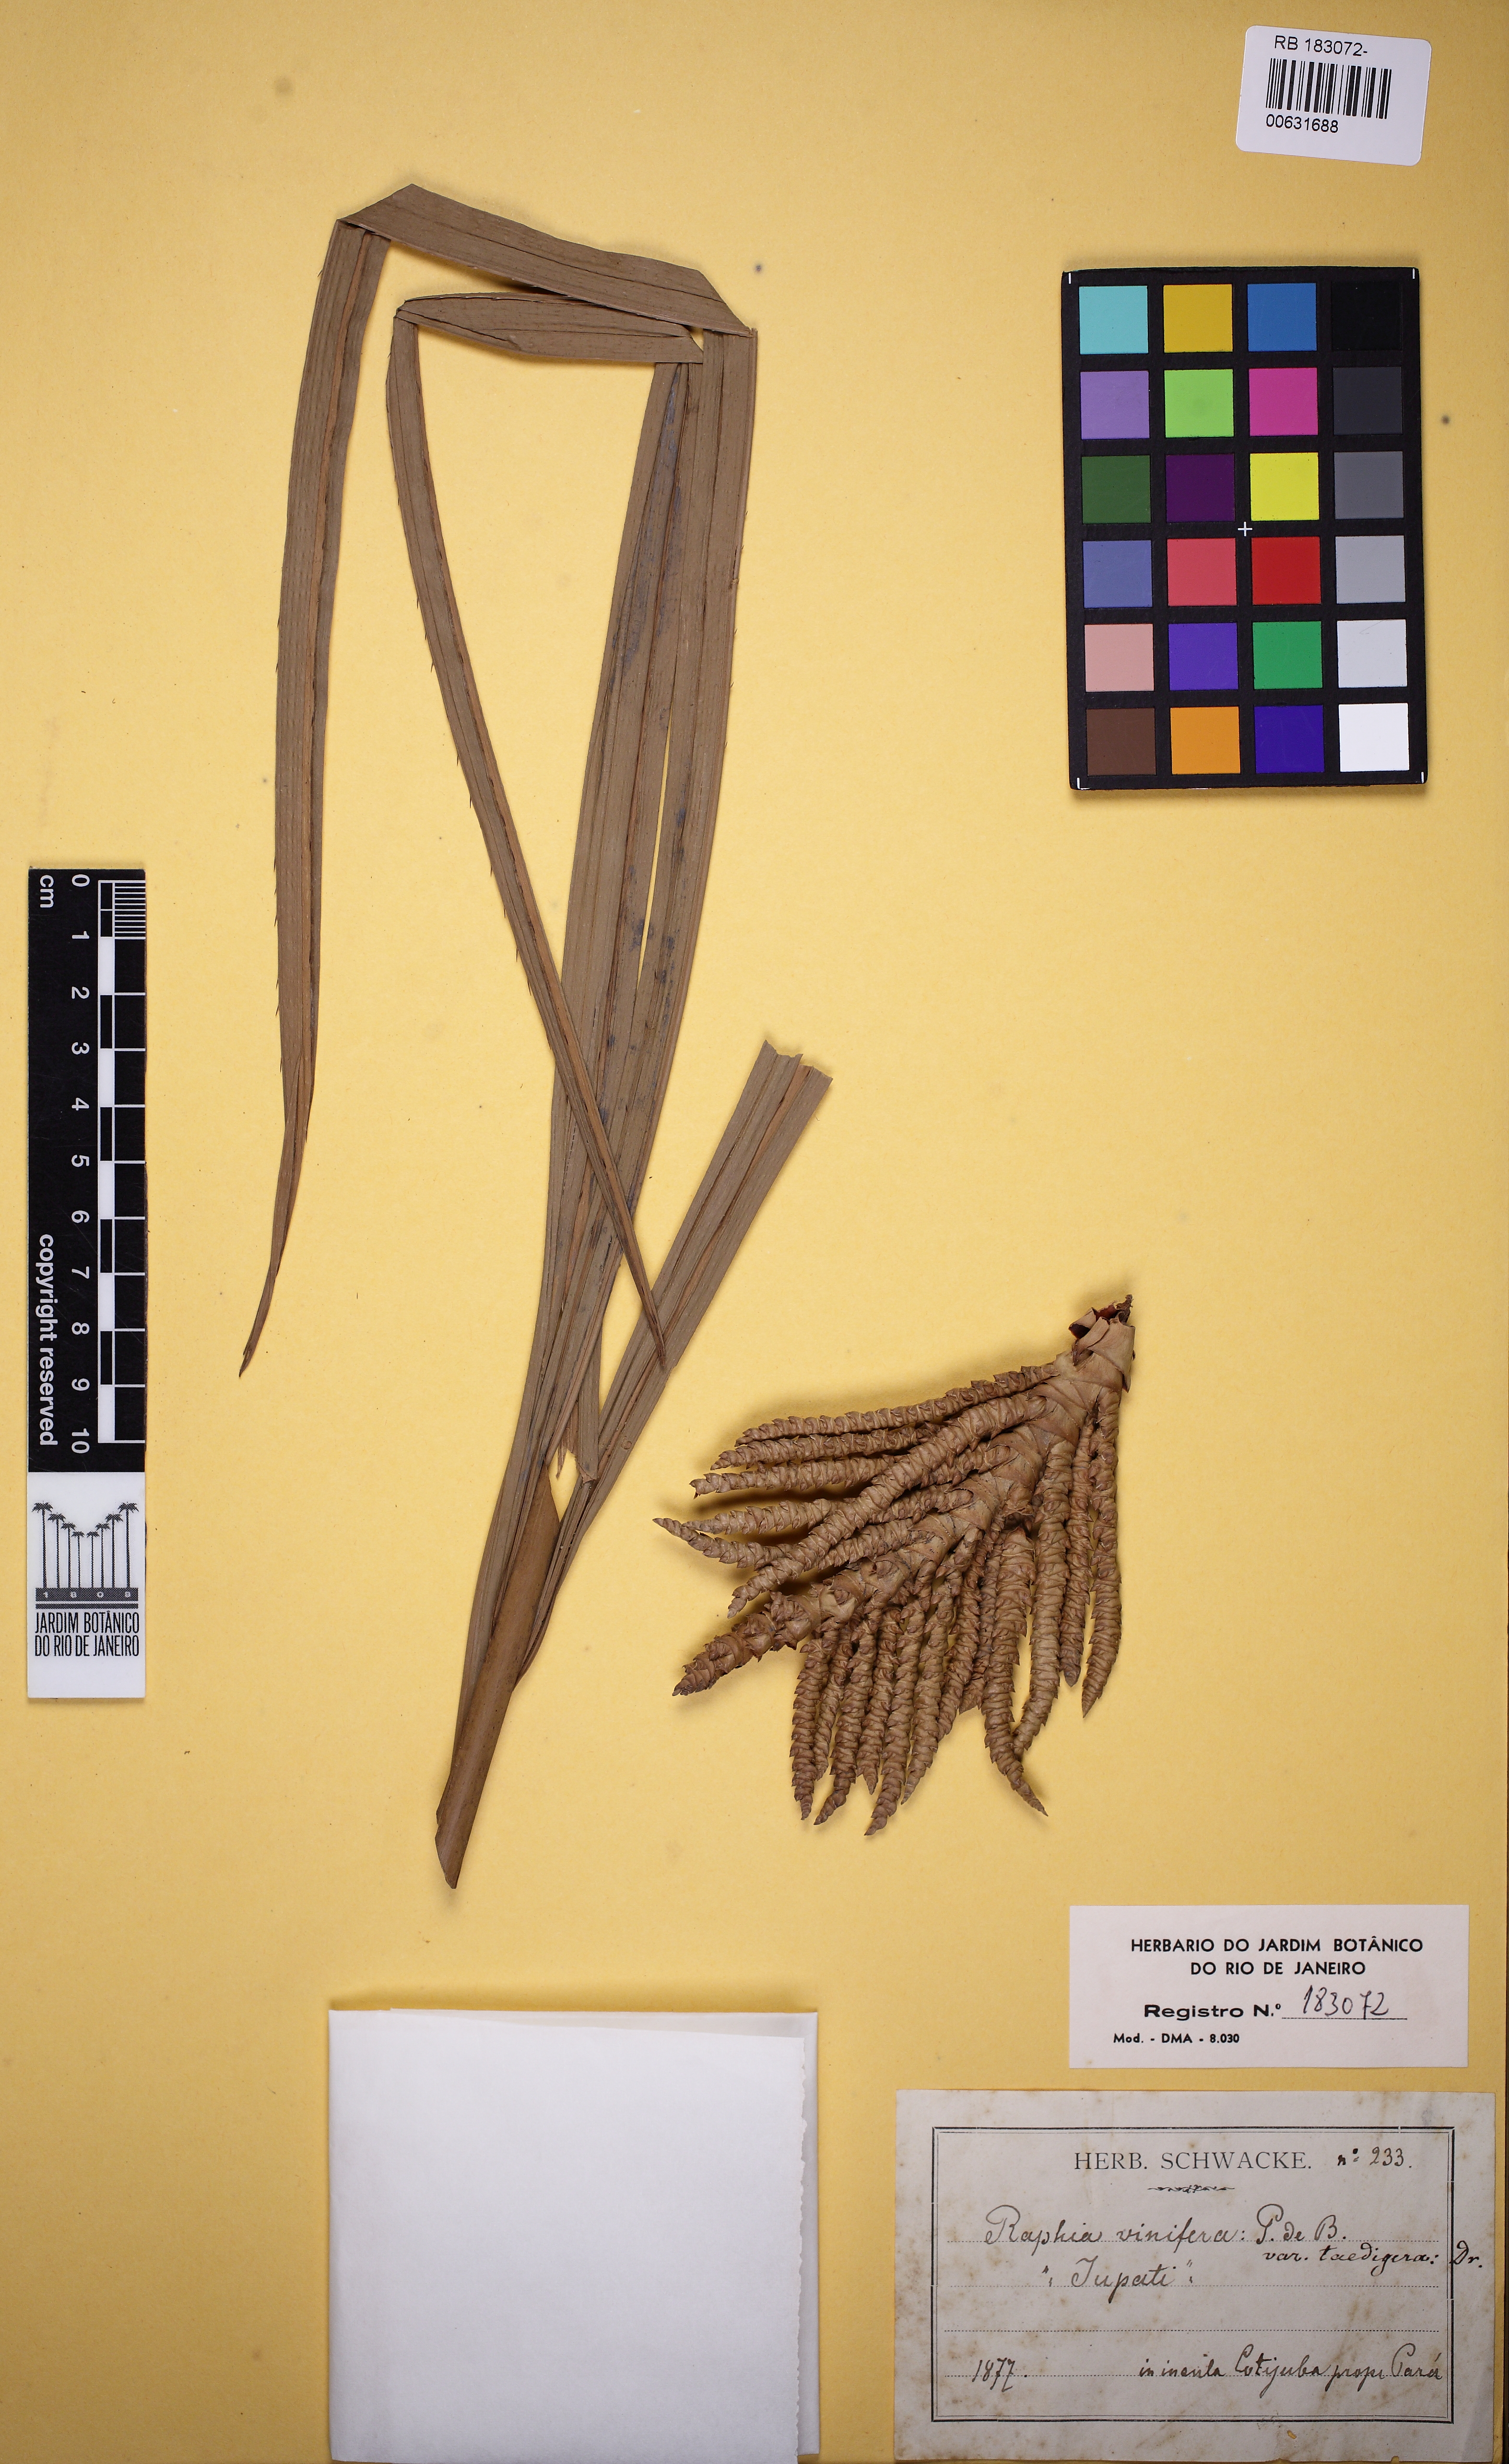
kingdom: Plantae
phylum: Tracheophyta
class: Liliopsida
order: Arecales
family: Arecaceae
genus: Raphia
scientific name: Raphia vinifera
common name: Raphia palm
